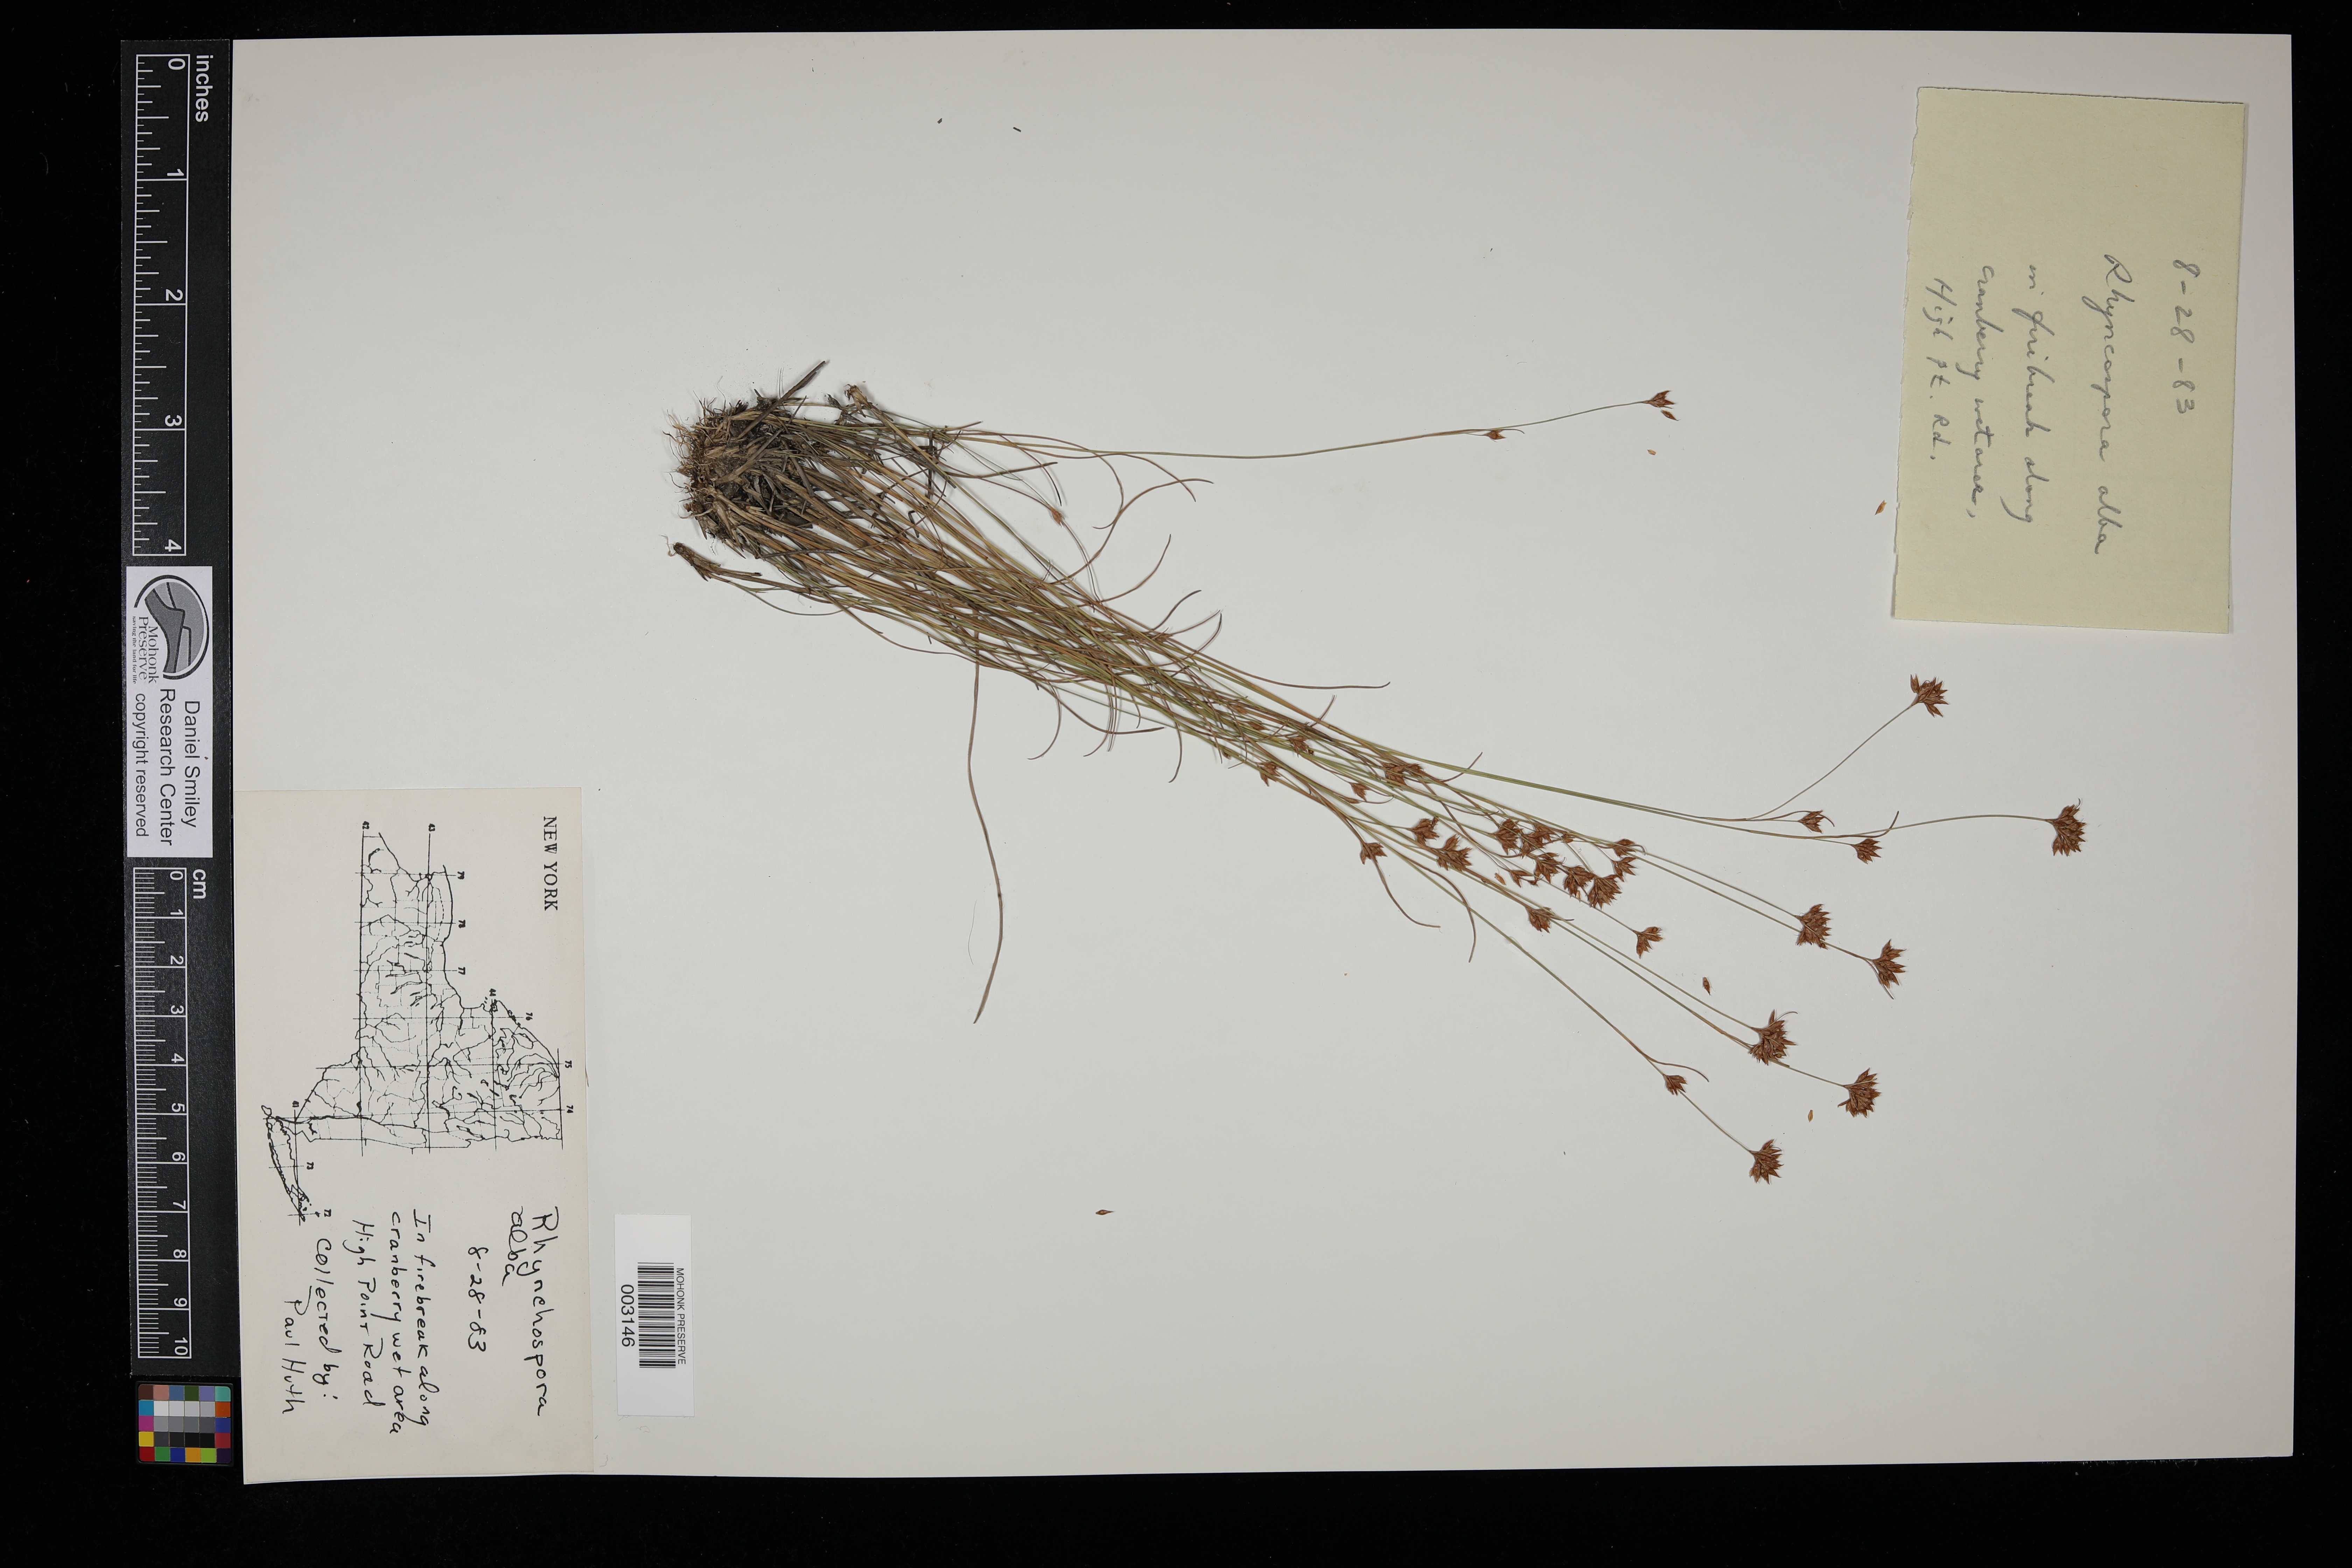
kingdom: Plantae
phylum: Tracheophyta
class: Liliopsida
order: Poales
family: Cyperaceae
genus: Rhynchospora
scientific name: Rhynchospora alba
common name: White beak-sedge
